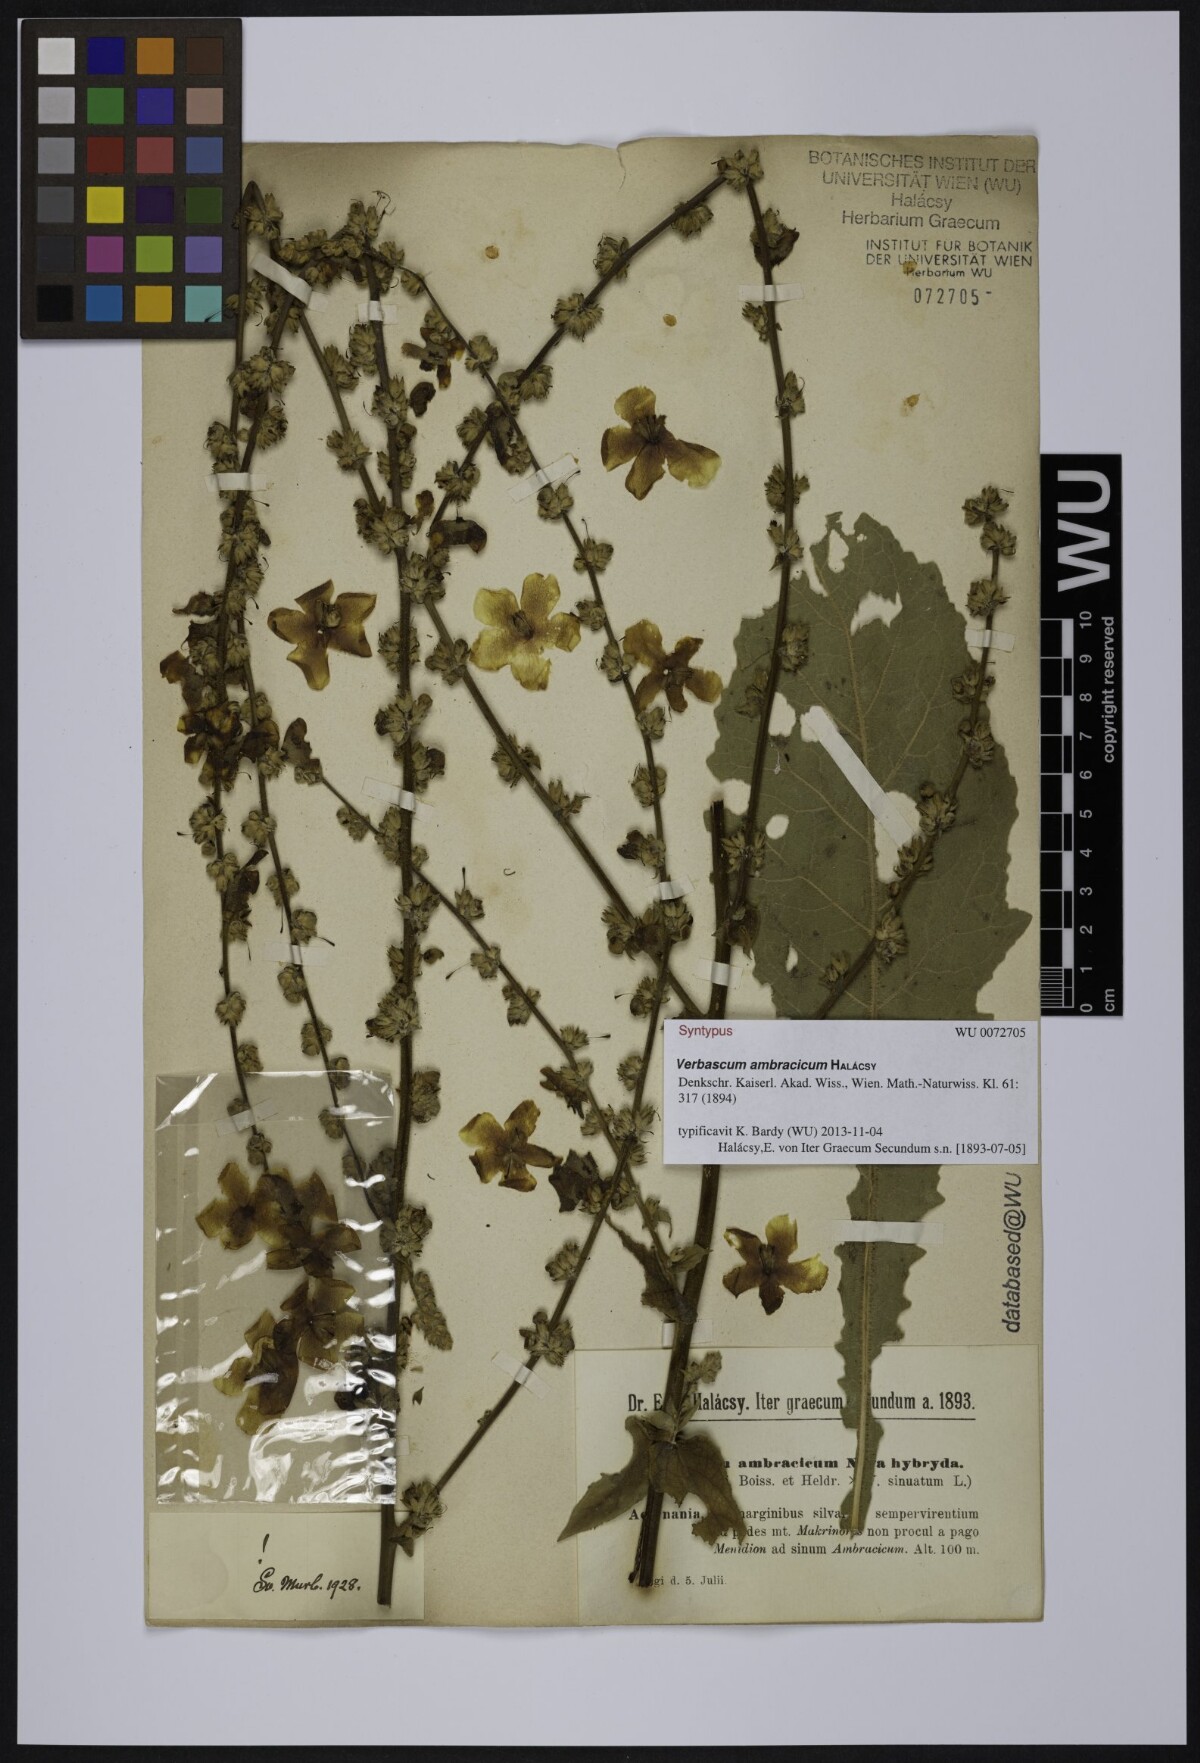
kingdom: Plantae
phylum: Tracheophyta
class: Magnoliopsida
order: Lamiales
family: Scrophulariaceae
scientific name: Scrophulariaceae
